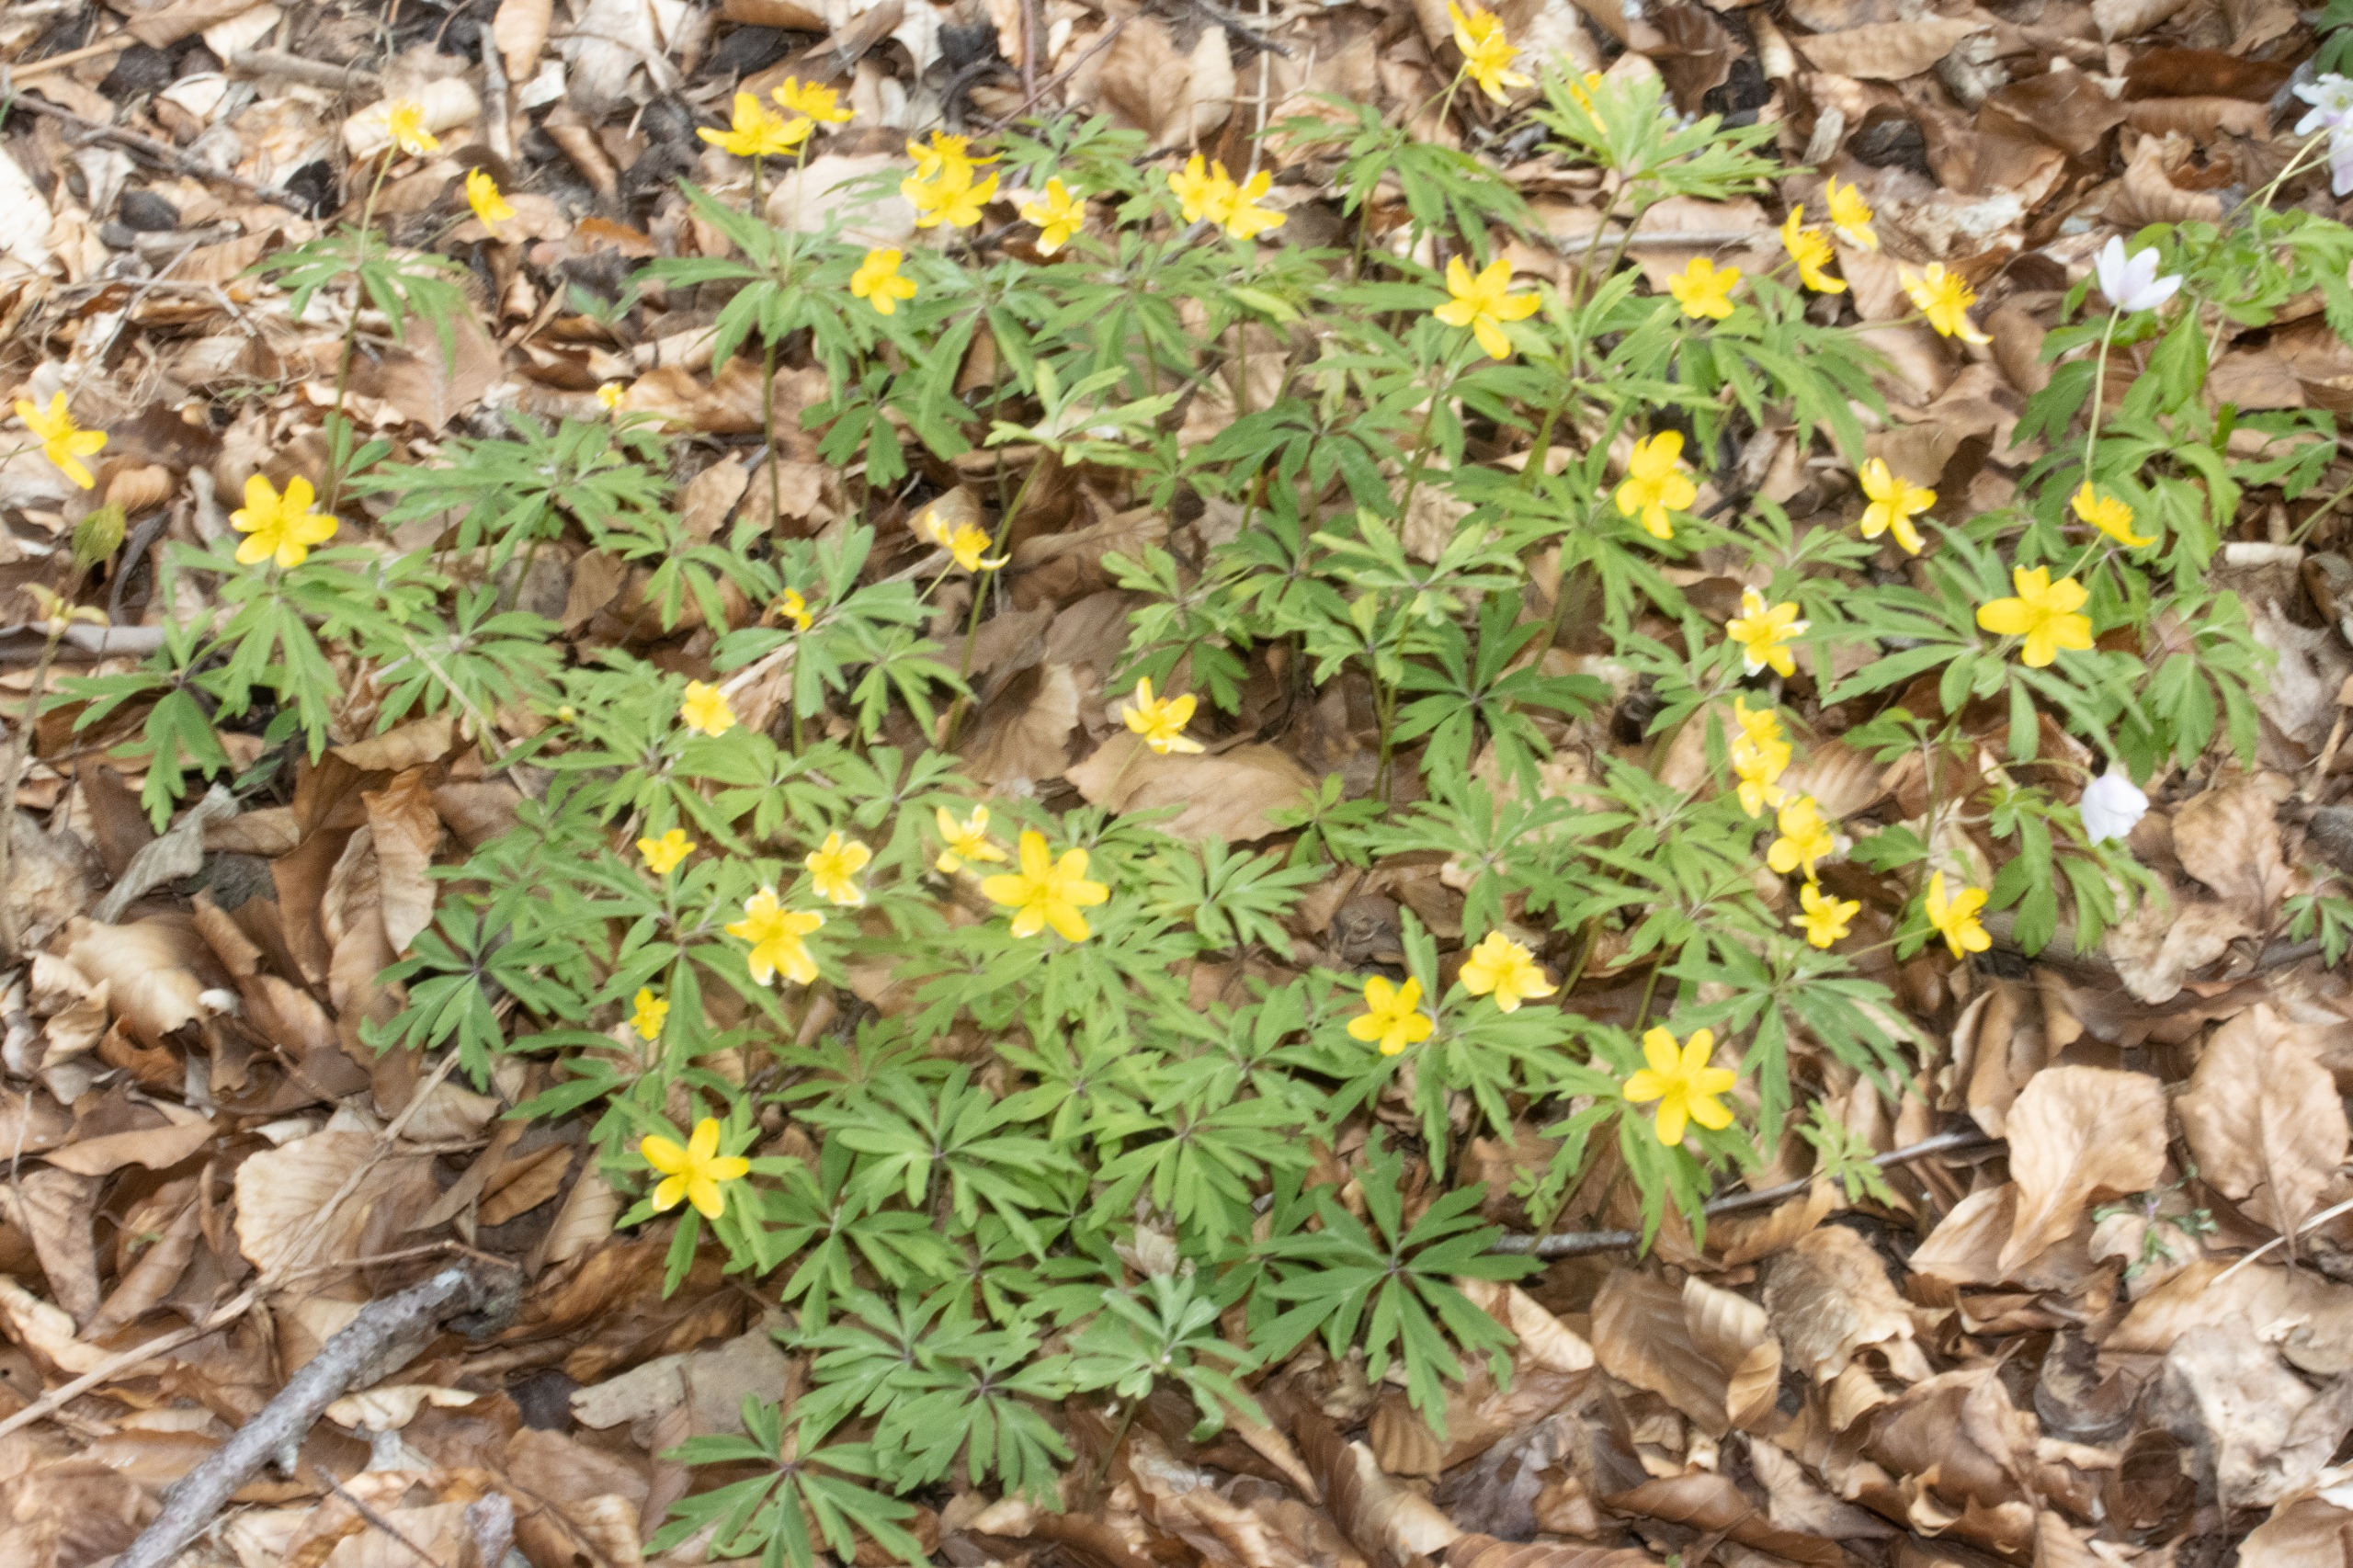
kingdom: Plantae
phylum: Tracheophyta
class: Magnoliopsida
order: Ranunculales
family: Ranunculaceae
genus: Anemone
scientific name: Anemone ranunculoides
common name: Gul anemone
